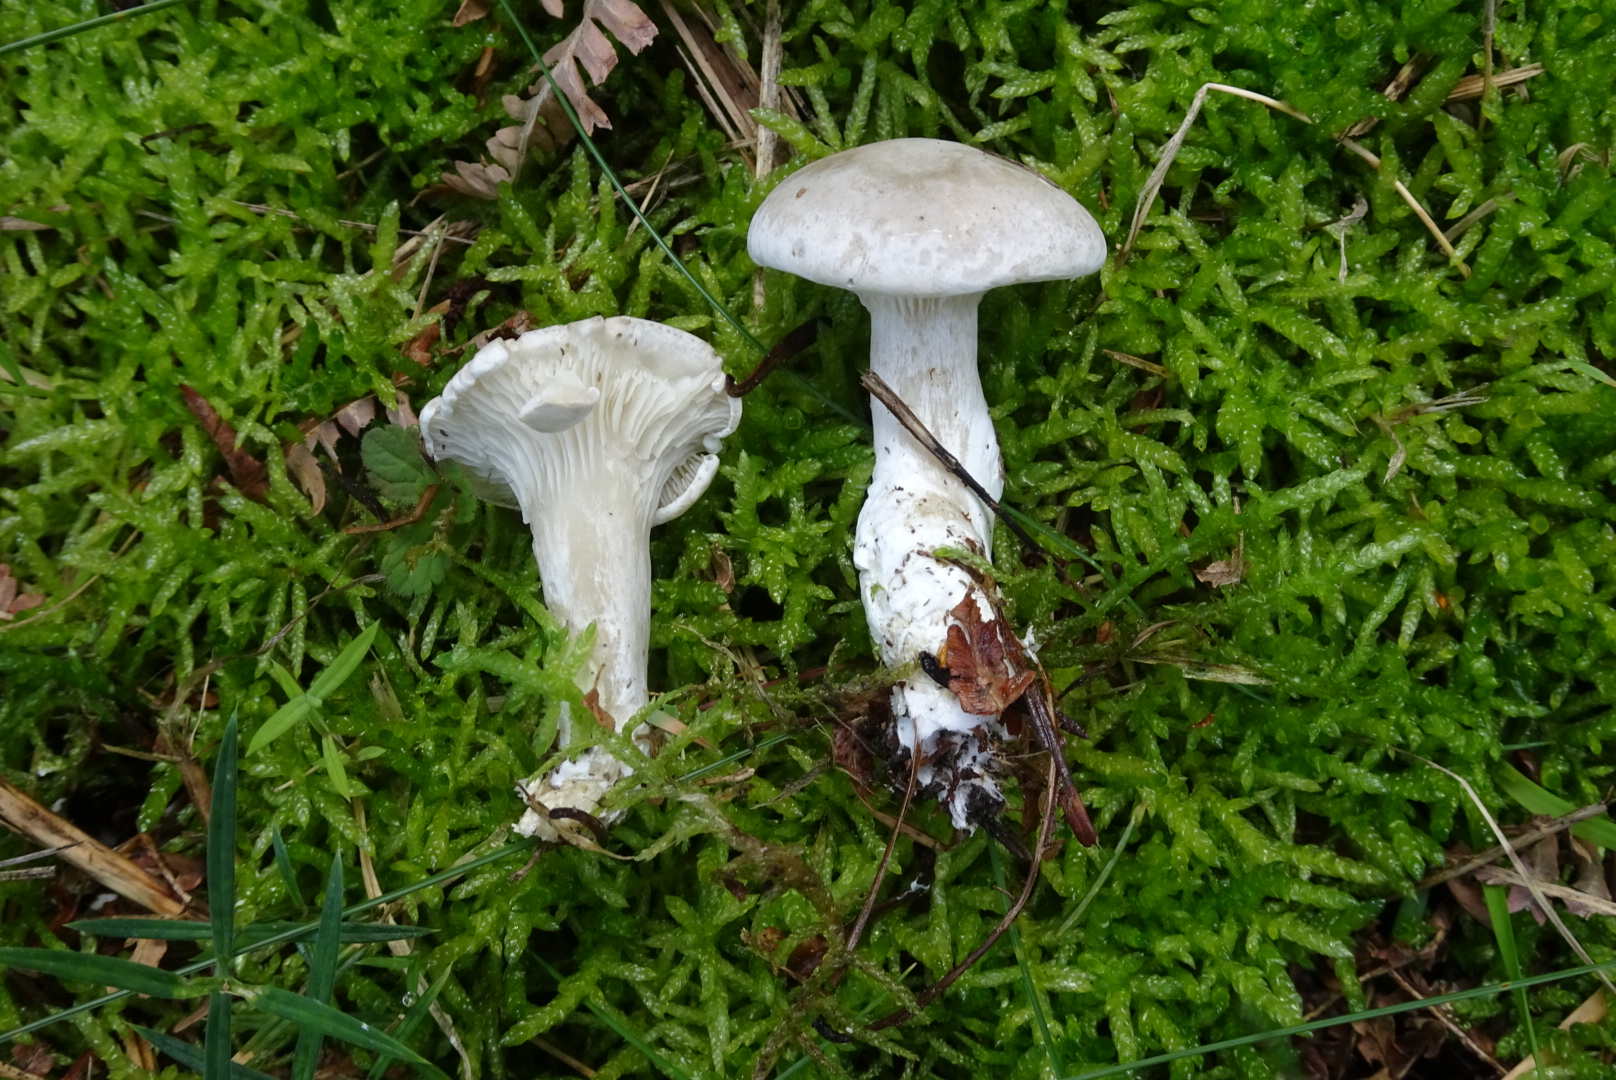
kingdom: Fungi
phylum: Basidiomycota
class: Agaricomycetes
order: Agaricales
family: Entolomataceae
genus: Clitopilus
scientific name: Clitopilus prunulus
